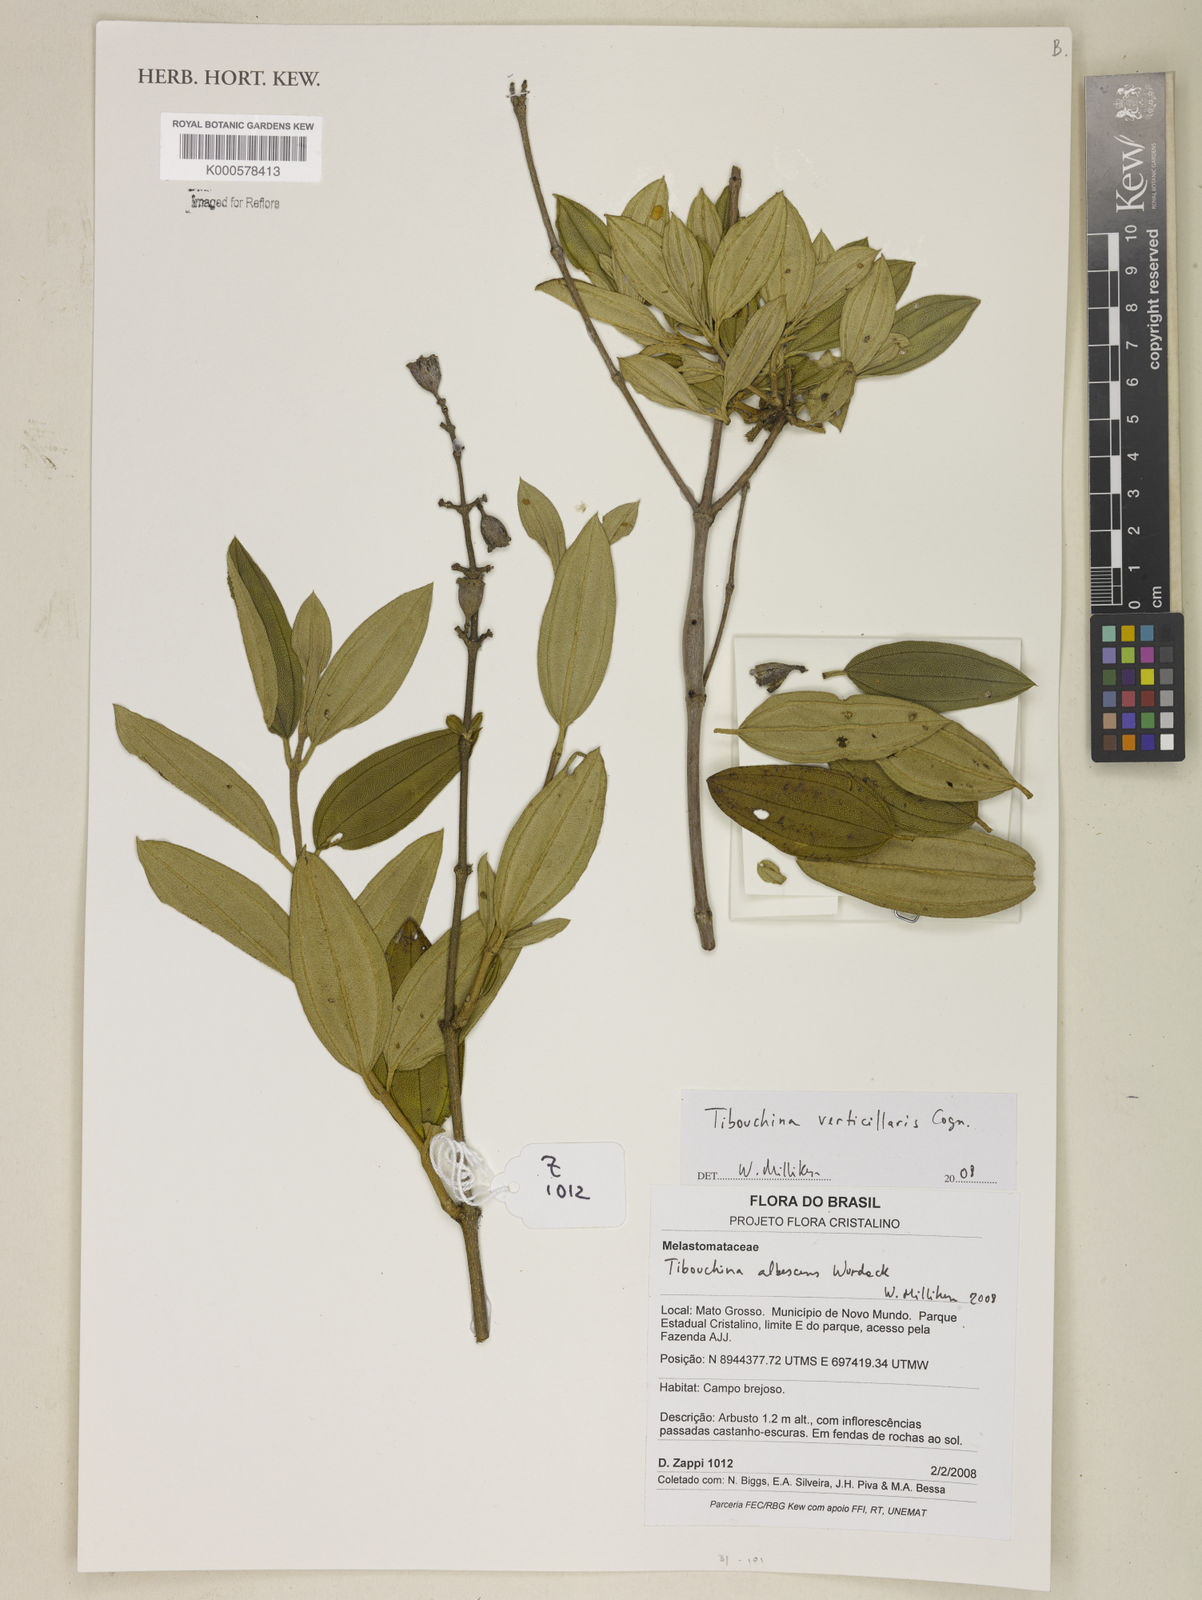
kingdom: Plantae
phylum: Tracheophyta
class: Magnoliopsida
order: Myrtales
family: Melastomataceae
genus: Tibouchina
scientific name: Tibouchina verticillaris
